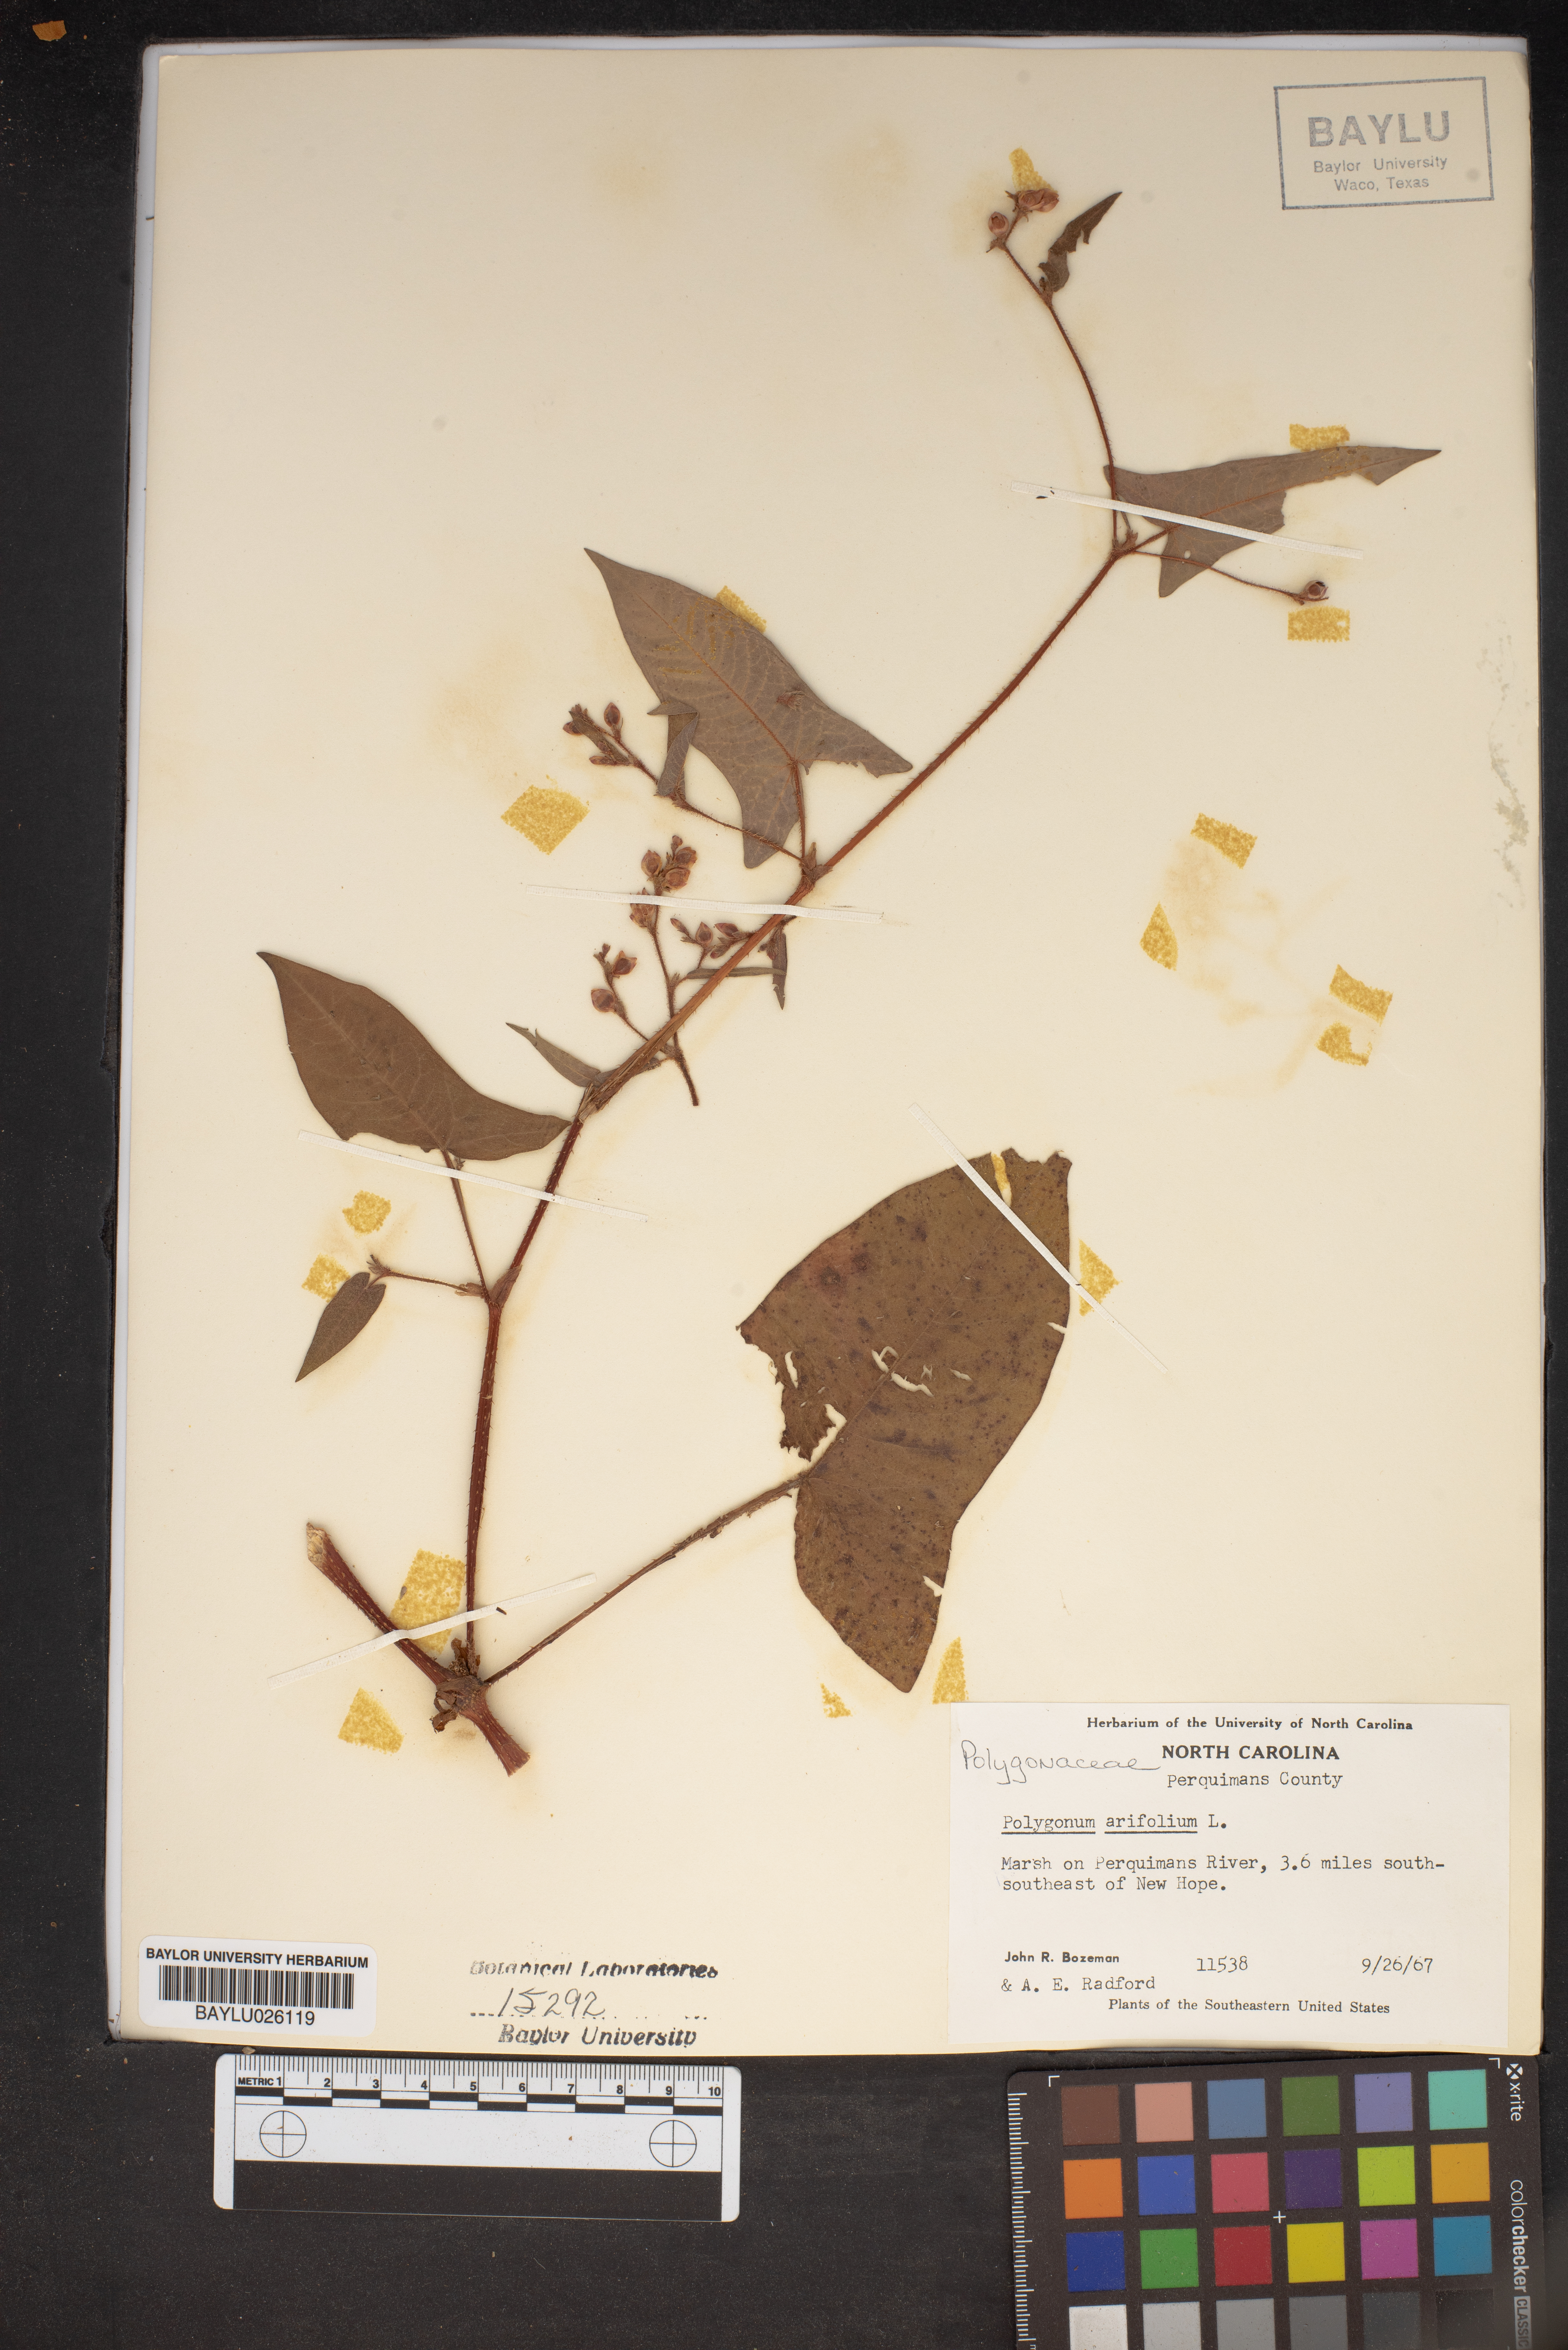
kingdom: Plantae
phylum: Tracheophyta
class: Magnoliopsida
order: Caryophyllales
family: Polygonaceae
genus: Persicaria
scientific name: Persicaria arifolia
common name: Halberd-leaved tear-thumb
